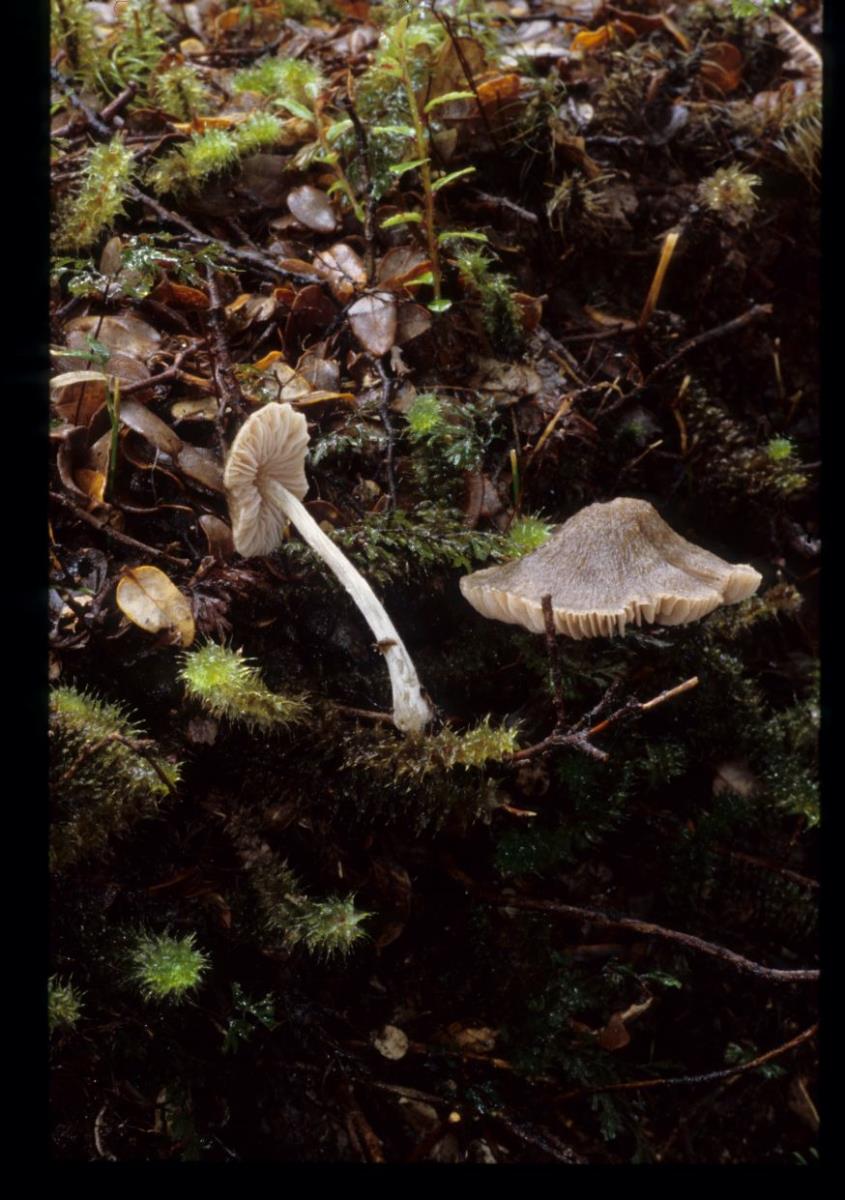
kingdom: Fungi
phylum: Basidiomycota
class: Agaricomycetes
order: Agaricales
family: Entolomataceae
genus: Entoloma
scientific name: Entoloma
